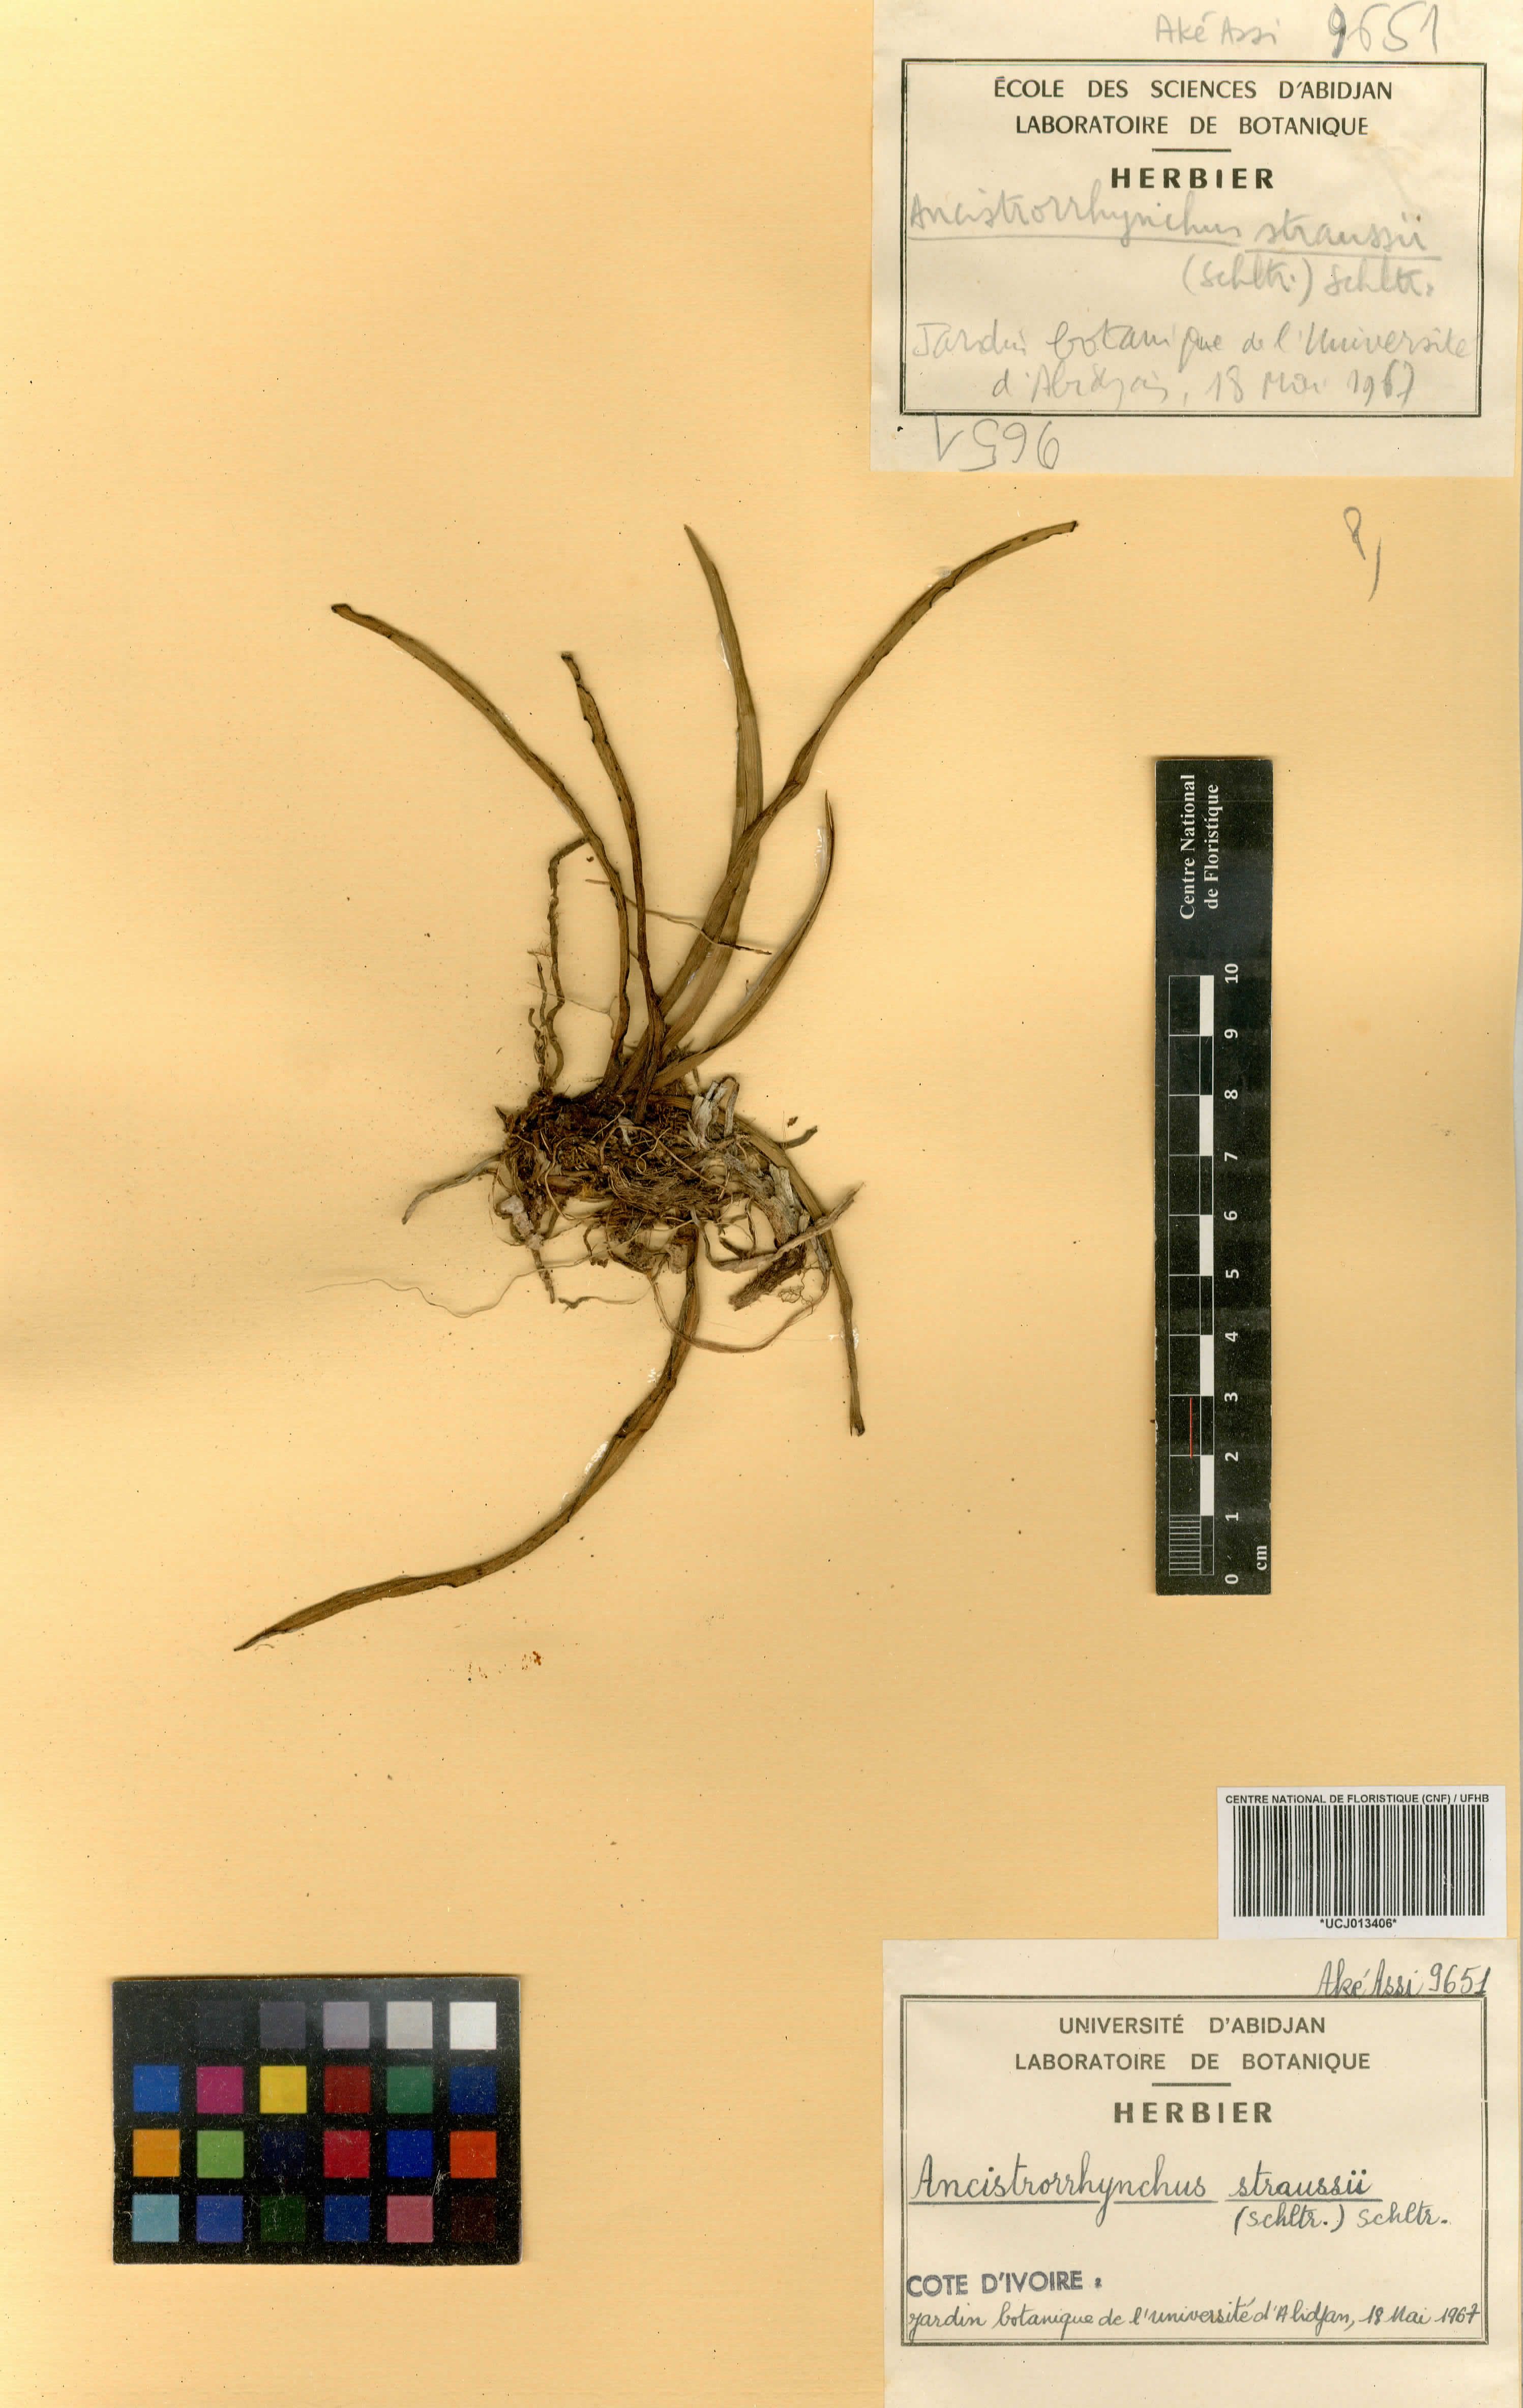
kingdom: Plantae
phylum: Tracheophyta
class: Liliopsida
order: Asparagales
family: Orchidaceae
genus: Ancistrorhynchus
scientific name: Ancistrorhynchus straussii
